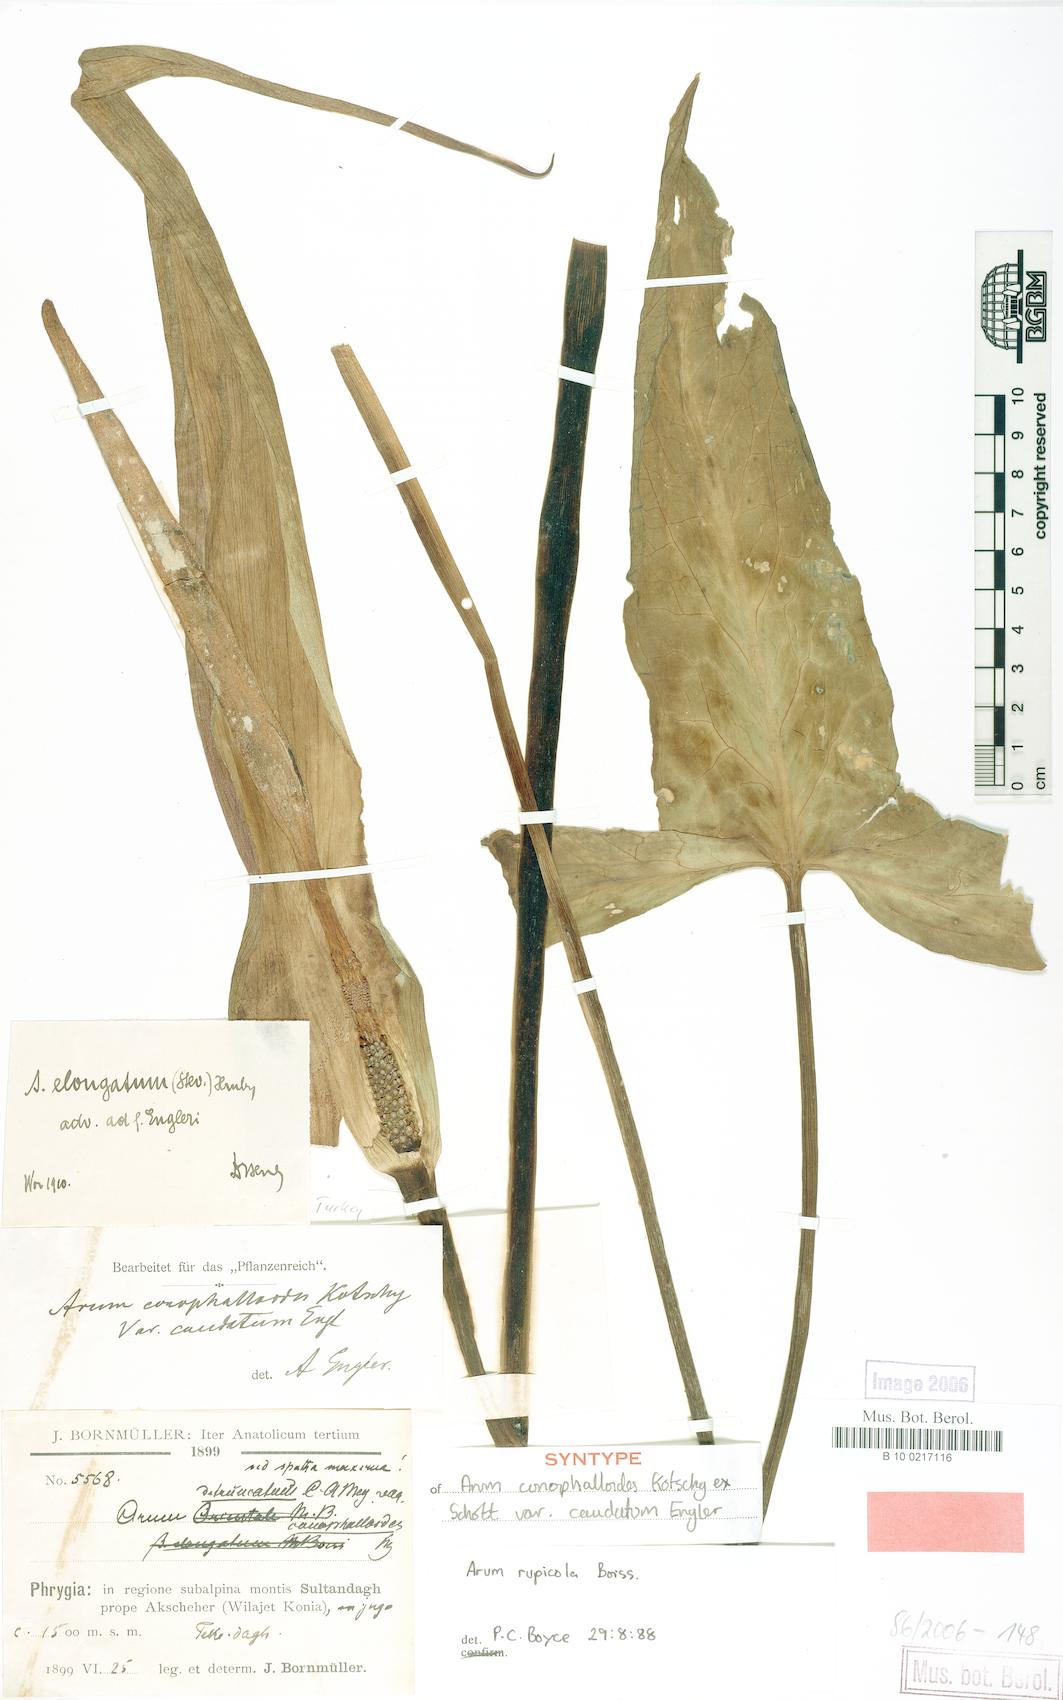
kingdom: Plantae
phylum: Tracheophyta
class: Liliopsida
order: Alismatales
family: Araceae
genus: Arum
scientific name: Arum rupicola
